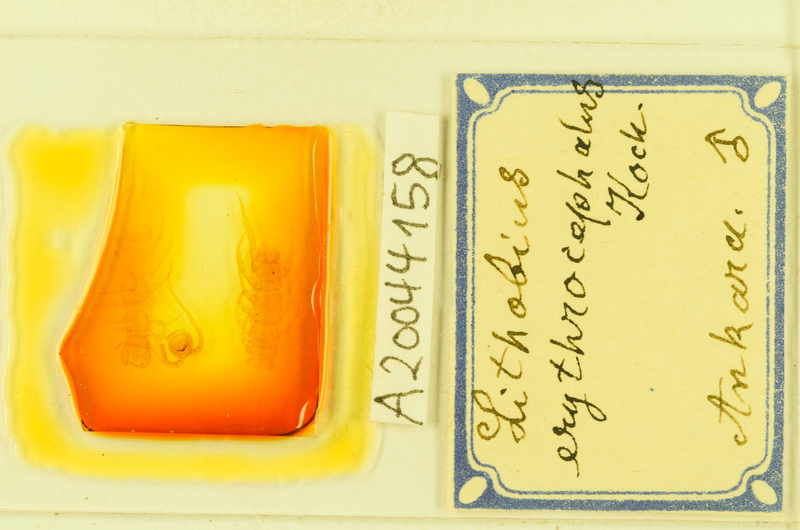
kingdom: Animalia
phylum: Arthropoda
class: Chilopoda
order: Lithobiomorpha
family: Lithobiidae
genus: Lithobius
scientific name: Lithobius erythrocephalus
